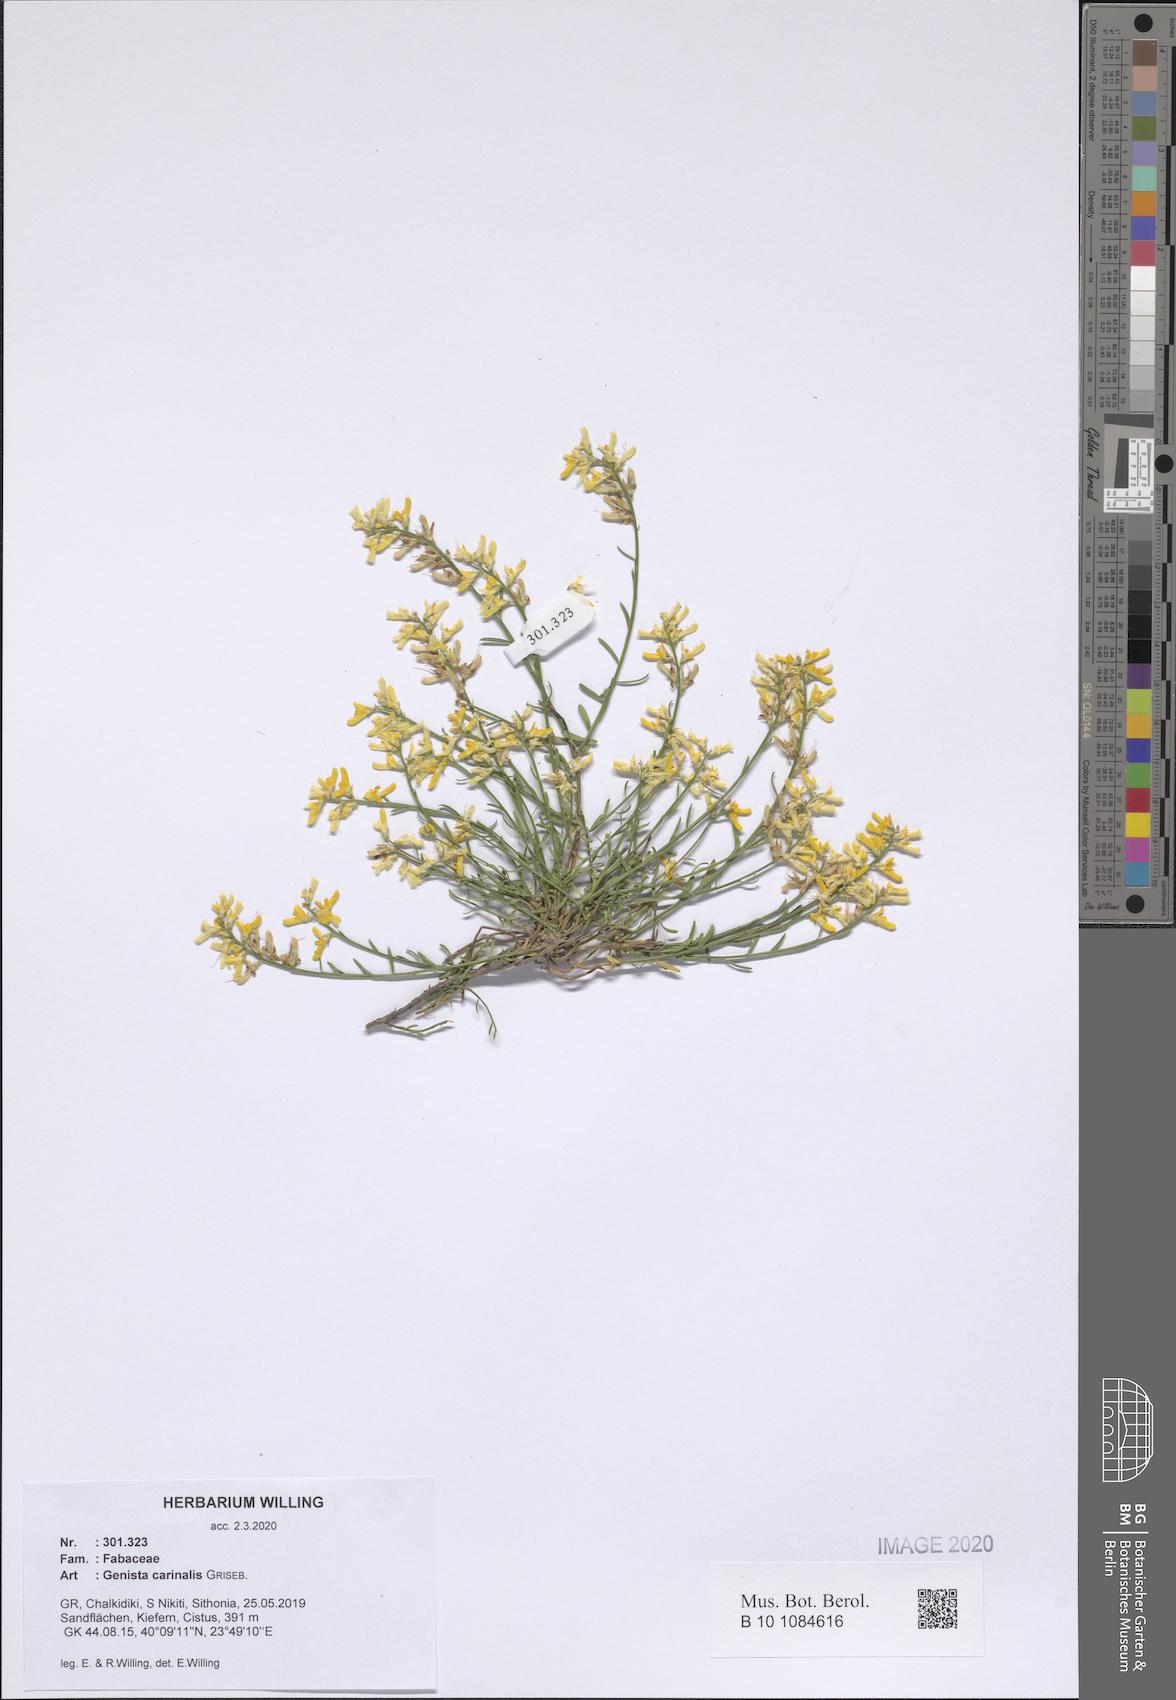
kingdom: Plantae
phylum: Tracheophyta
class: Magnoliopsida
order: Fabales
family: Fabaceae
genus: Genista
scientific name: Genista carinalis
